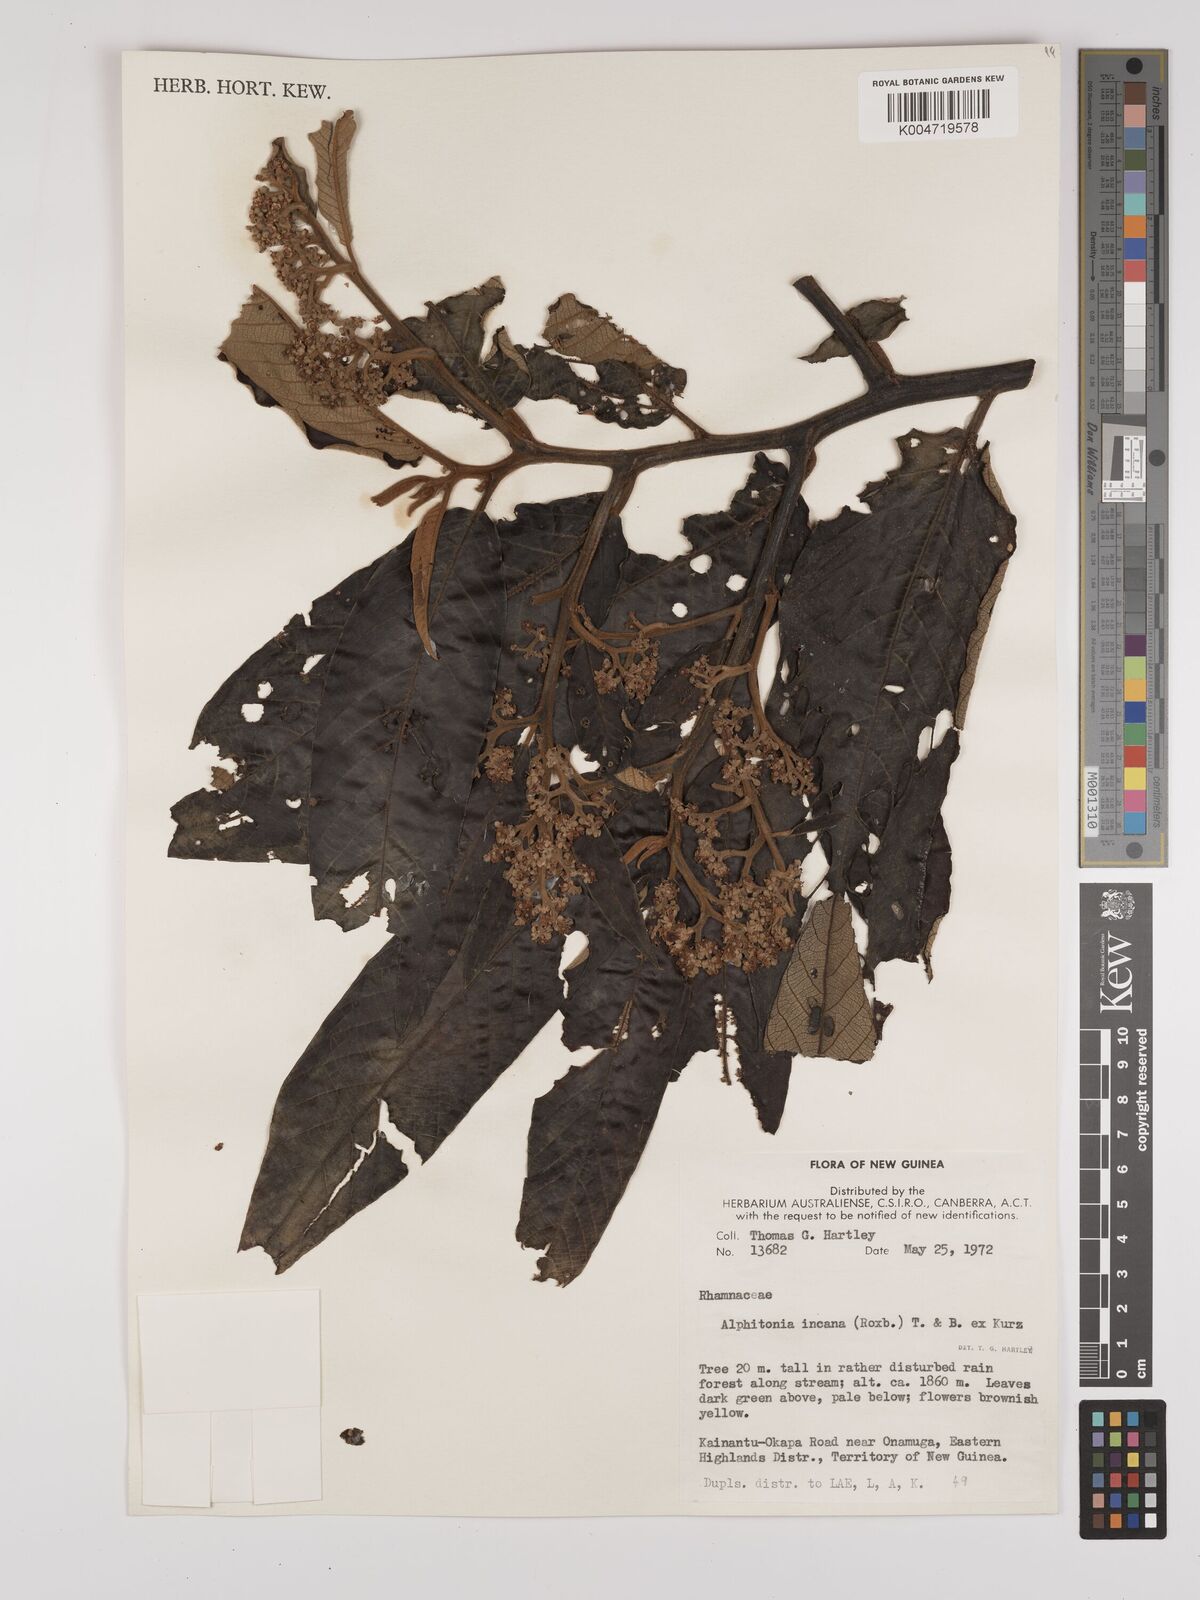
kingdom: Plantae
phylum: Tracheophyta
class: Magnoliopsida
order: Rosales
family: Rhamnaceae
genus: Alphitonia
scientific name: Alphitonia incana
